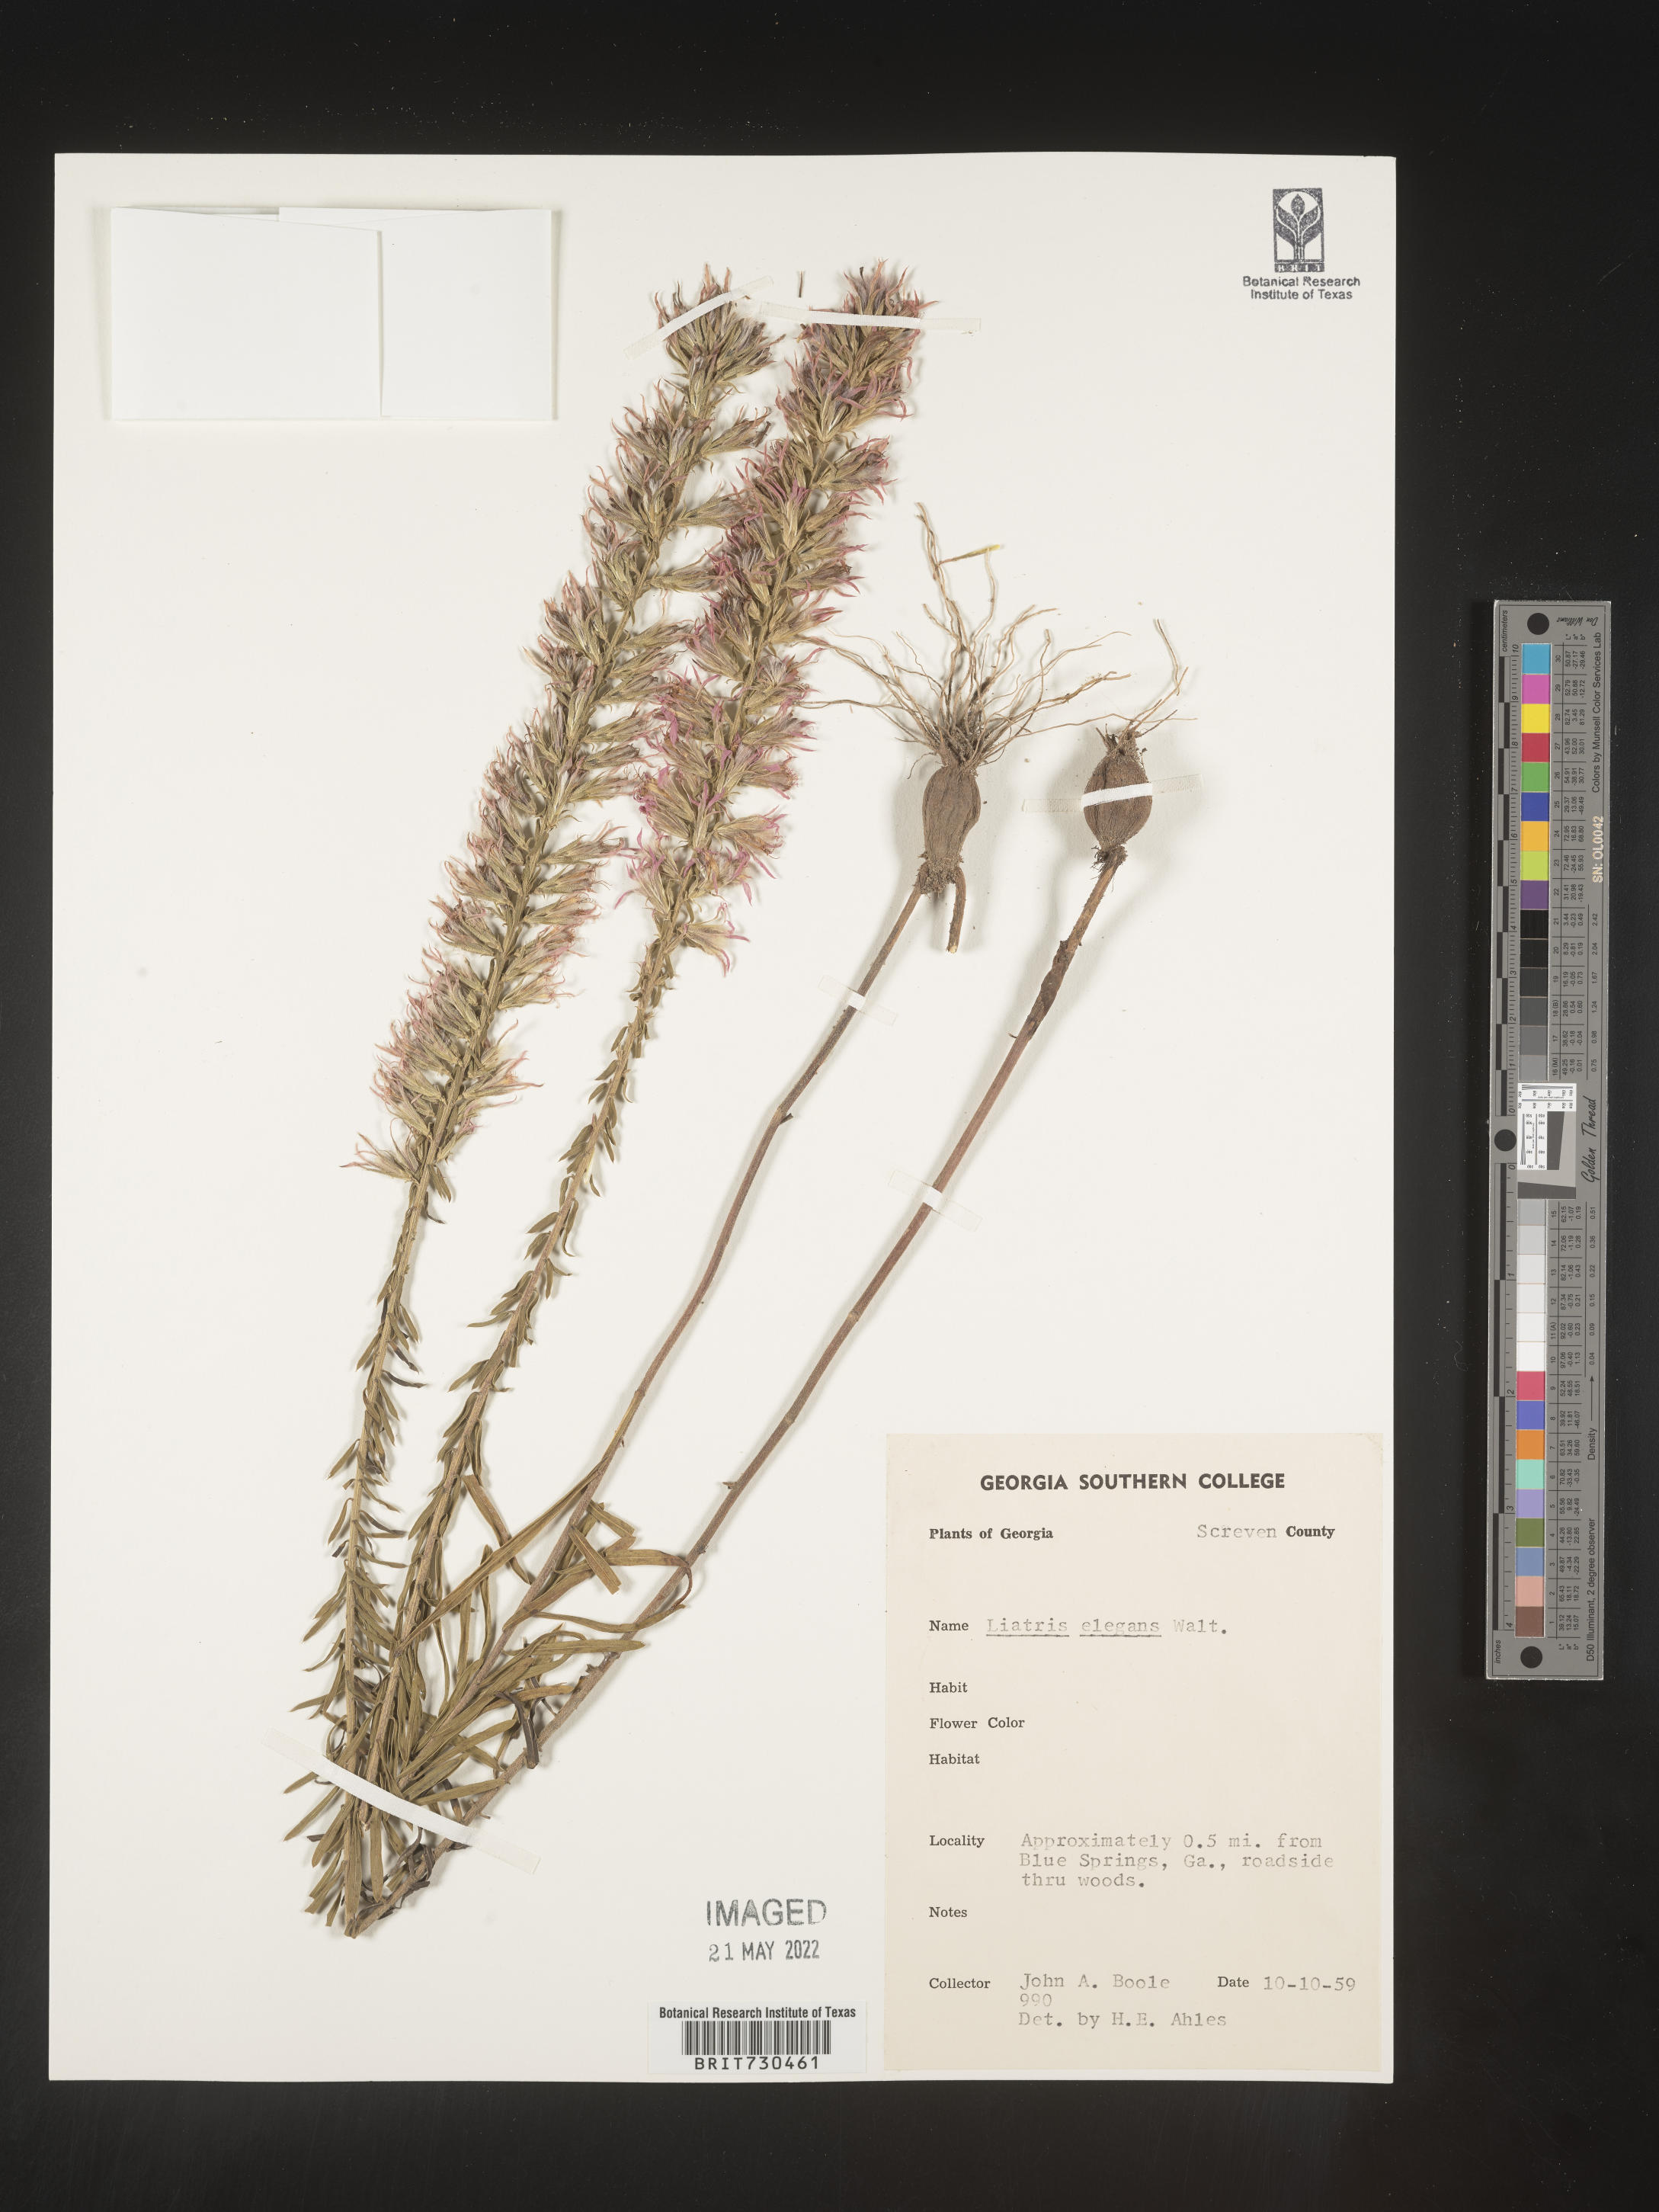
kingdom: Plantae
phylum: Tracheophyta
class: Magnoliopsida
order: Asterales
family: Asteraceae
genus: Liatris
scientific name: Liatris elegans
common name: Pinkscale gayfeather
